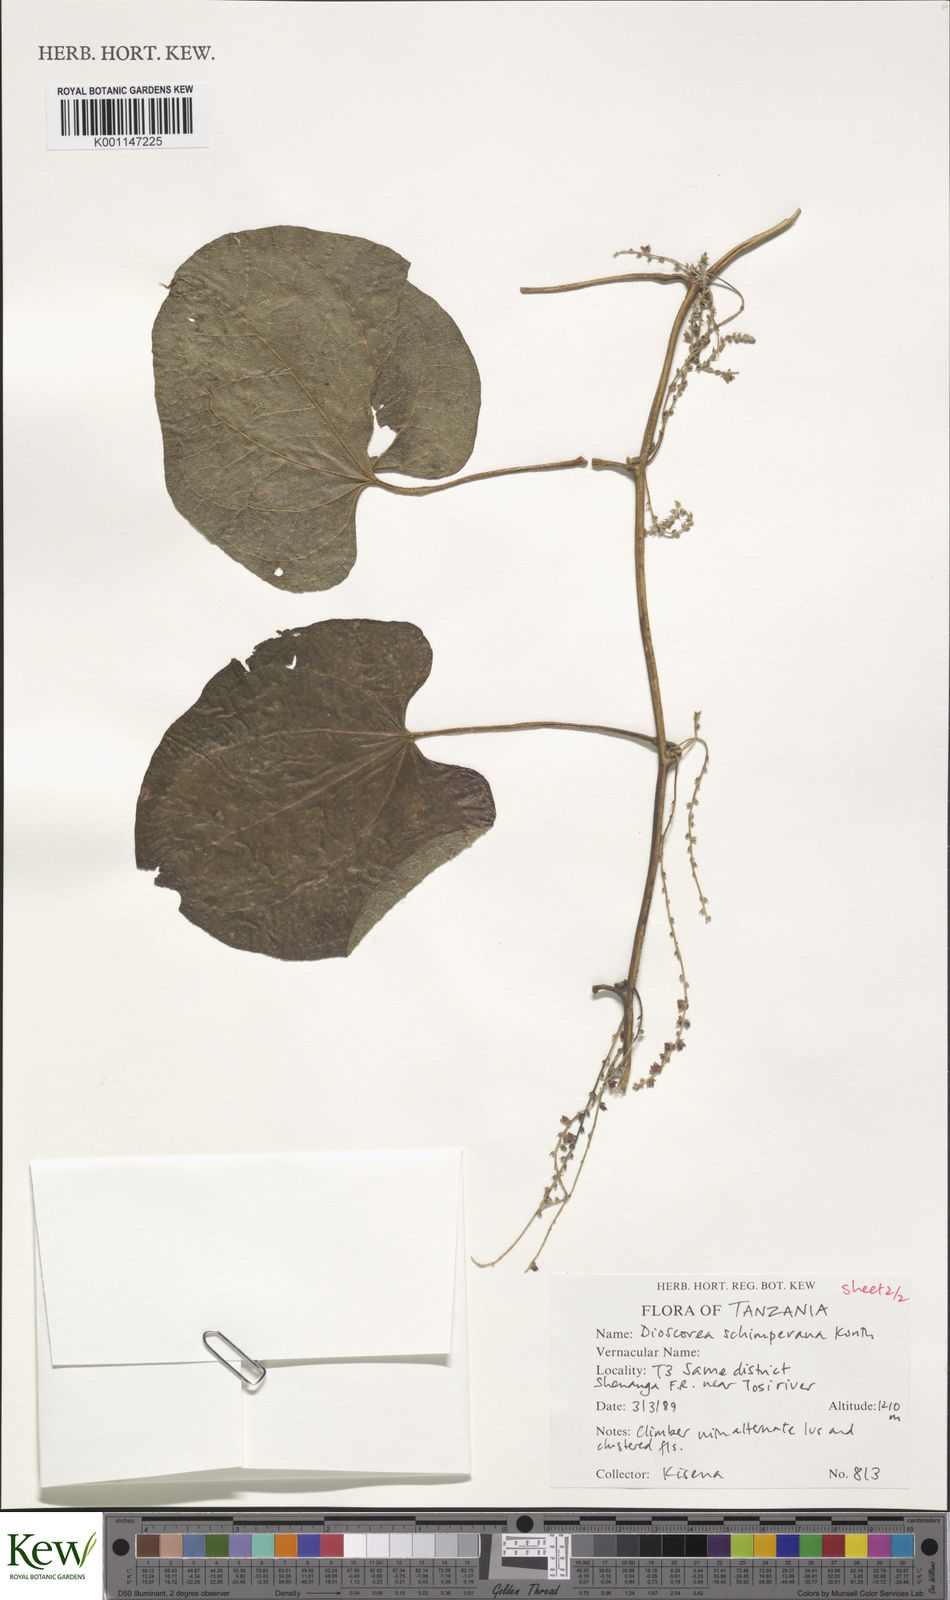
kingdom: Plantae
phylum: Tracheophyta
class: Liliopsida
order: Dioscoreales
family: Dioscoreaceae
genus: Dioscorea
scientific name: Dioscorea schimperiana
